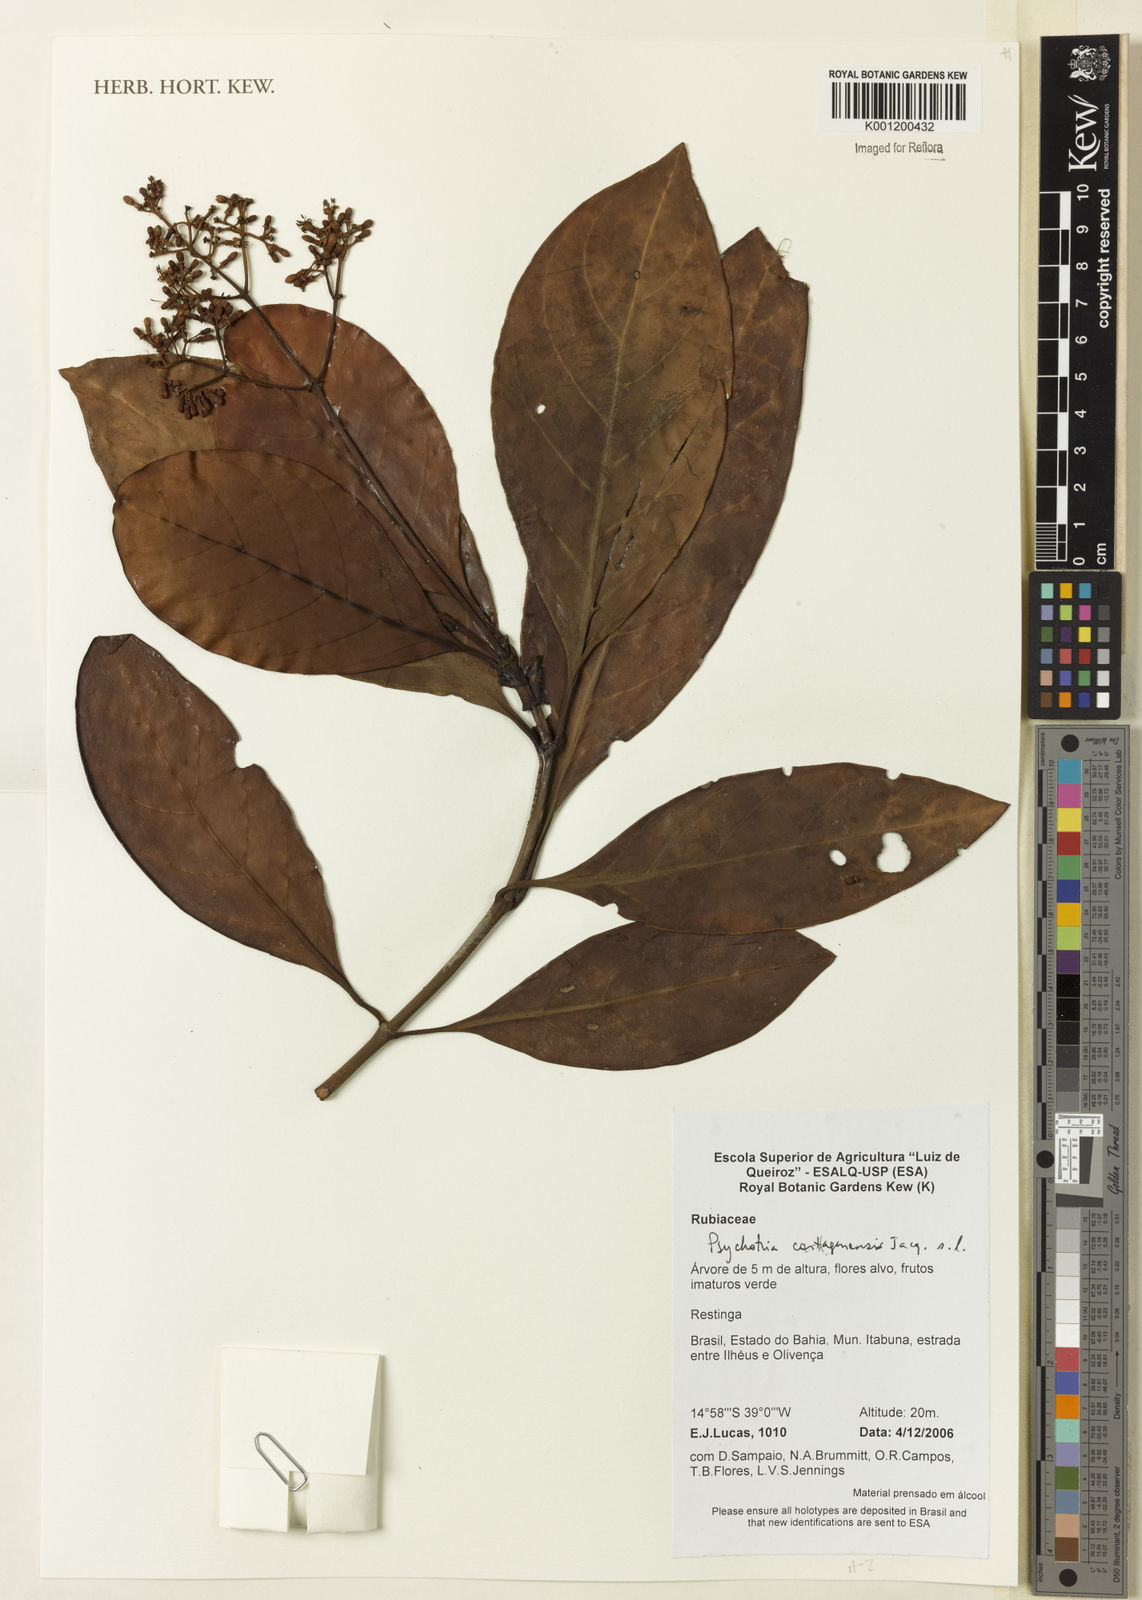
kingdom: Plantae
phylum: Tracheophyta
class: Magnoliopsida
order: Gentianales
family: Rubiaceae
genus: Psychotria
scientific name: Psychotria carthagenensis
